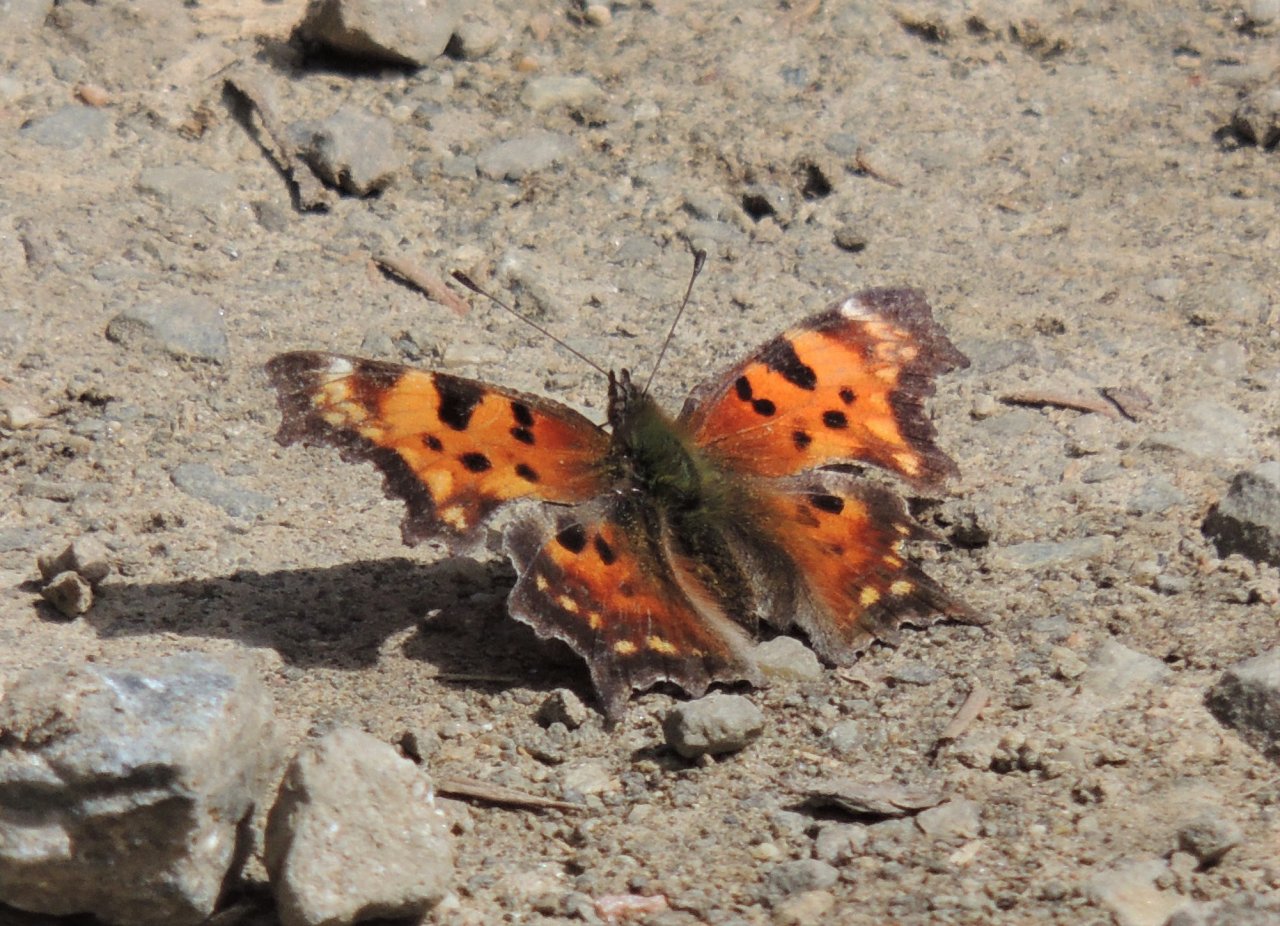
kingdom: Animalia
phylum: Arthropoda
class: Insecta
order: Lepidoptera
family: Nymphalidae
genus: Polygonia
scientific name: Polygonia faunus
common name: Green Comma
